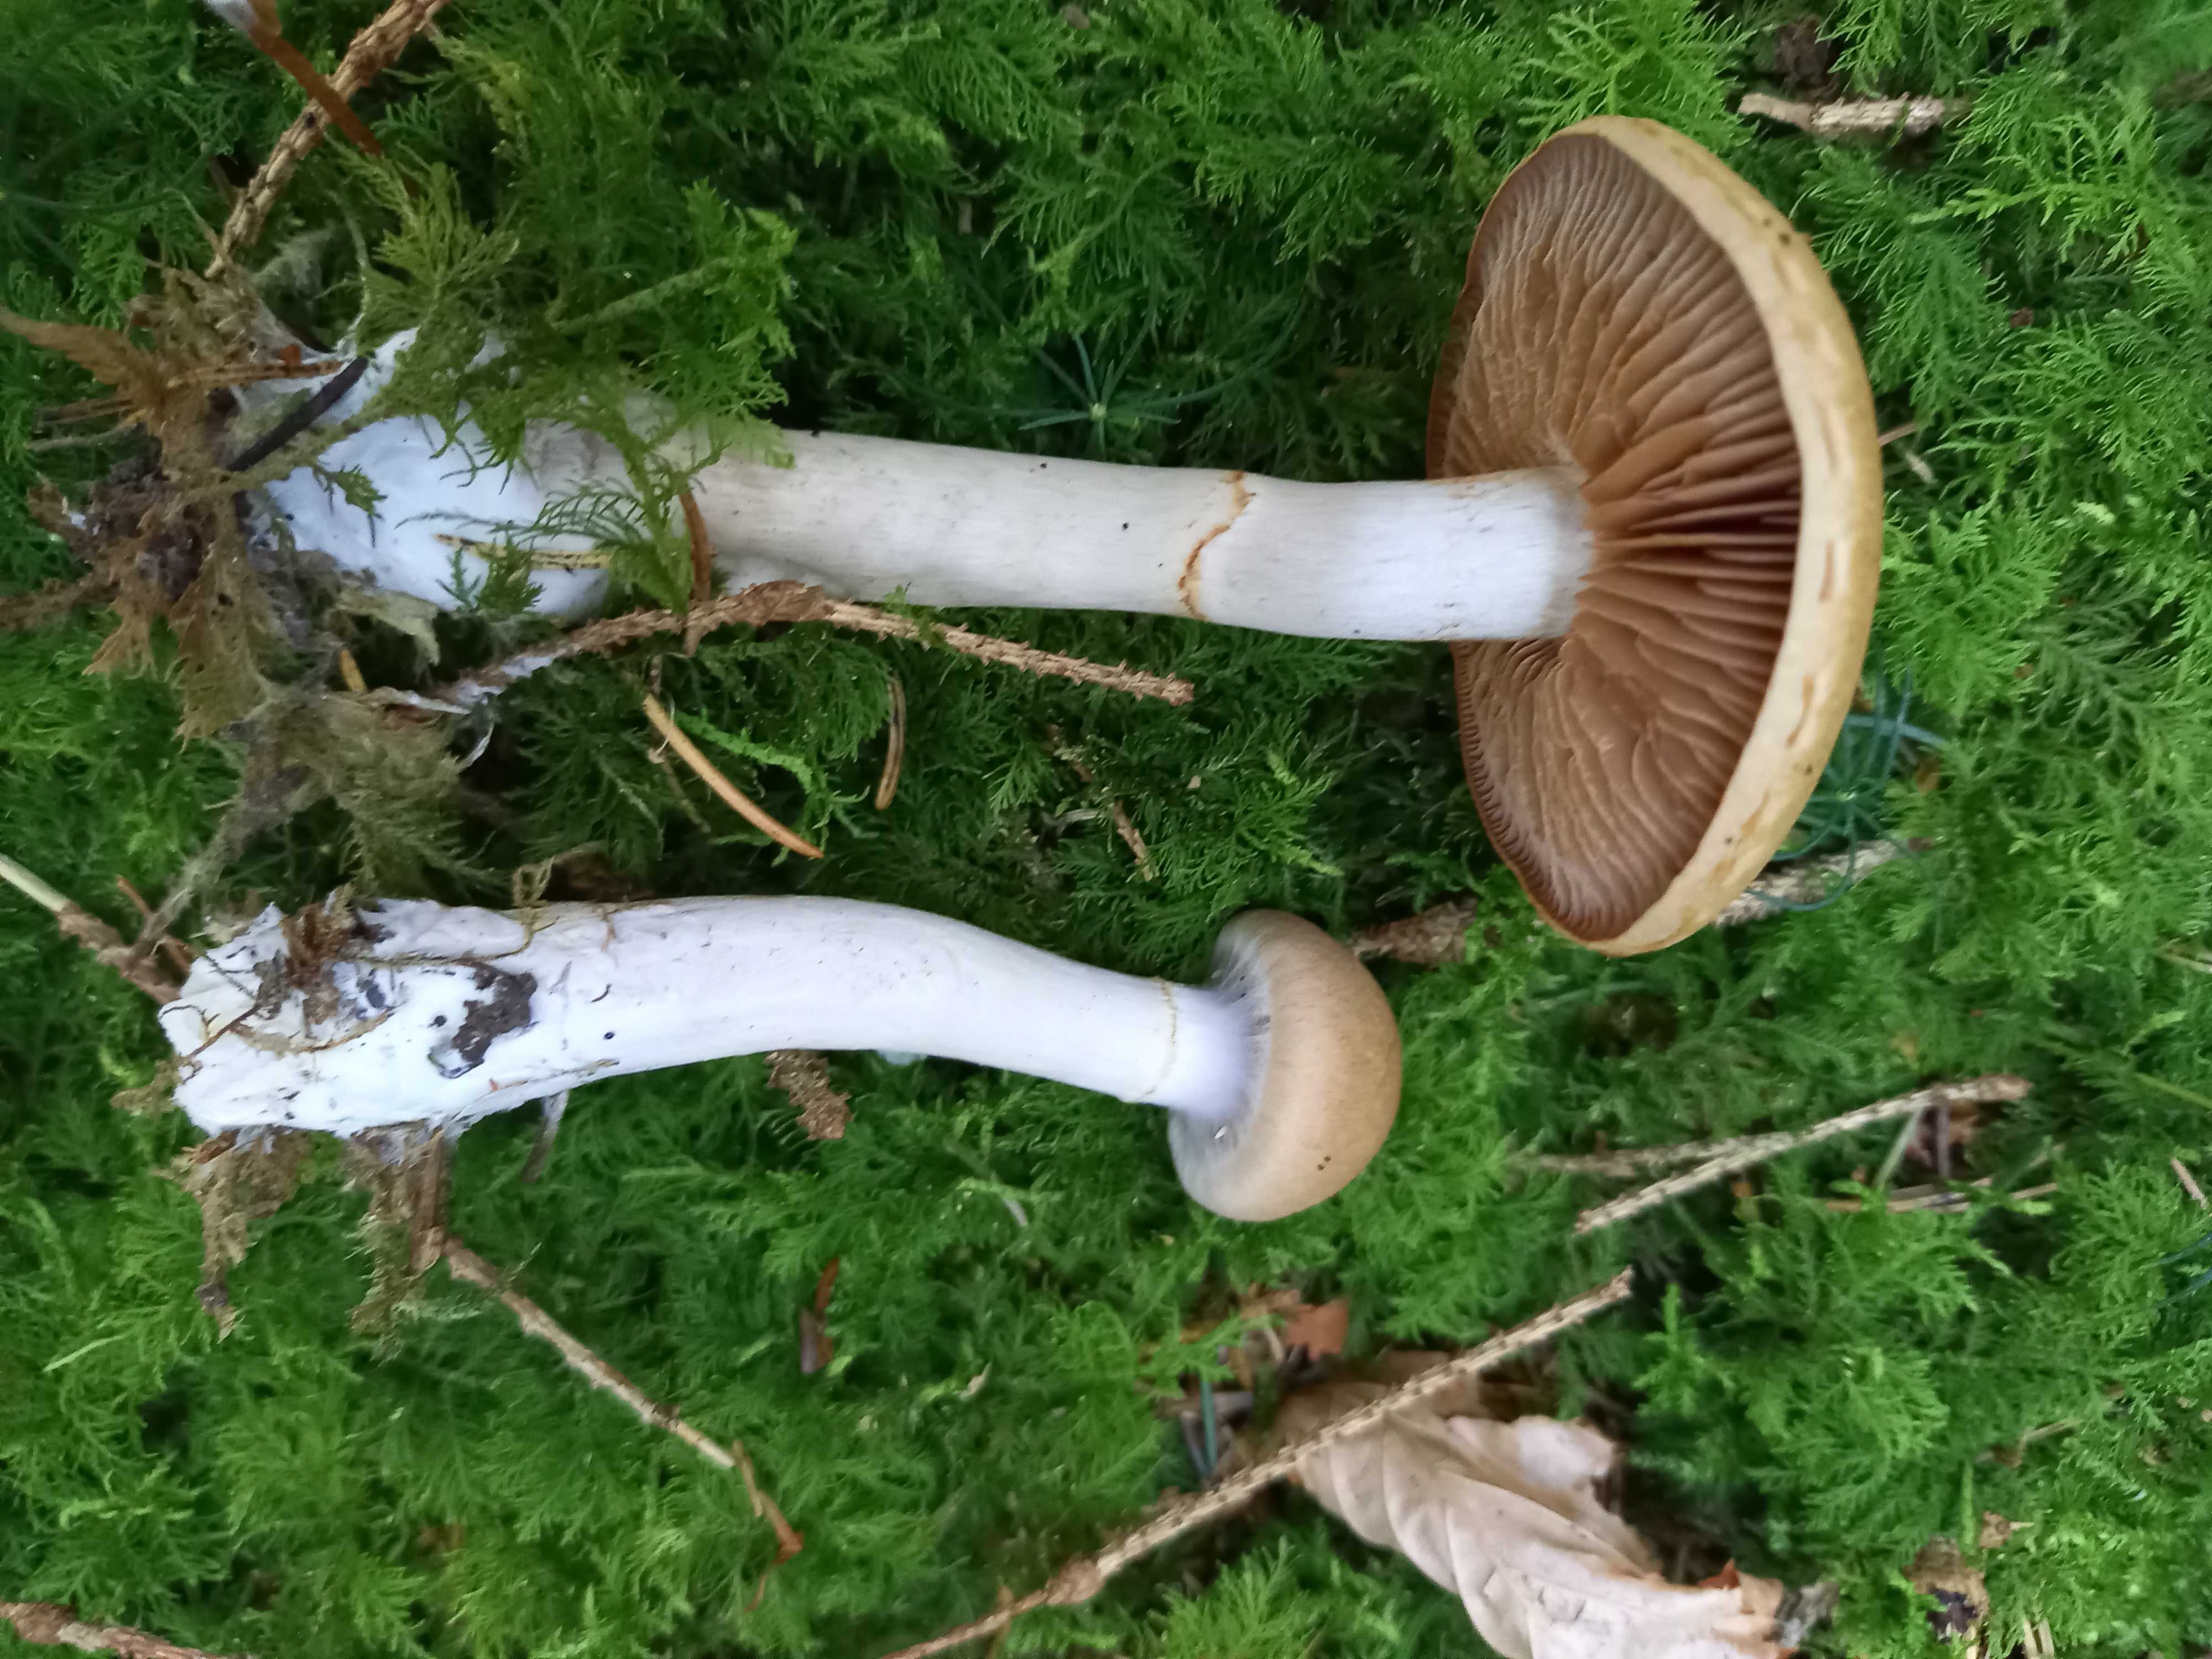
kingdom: Fungi
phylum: Basidiomycota
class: Agaricomycetes
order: Agaricales
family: Cortinariaceae
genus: Cortinarius
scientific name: Cortinarius caninus
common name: gran-slørhat
